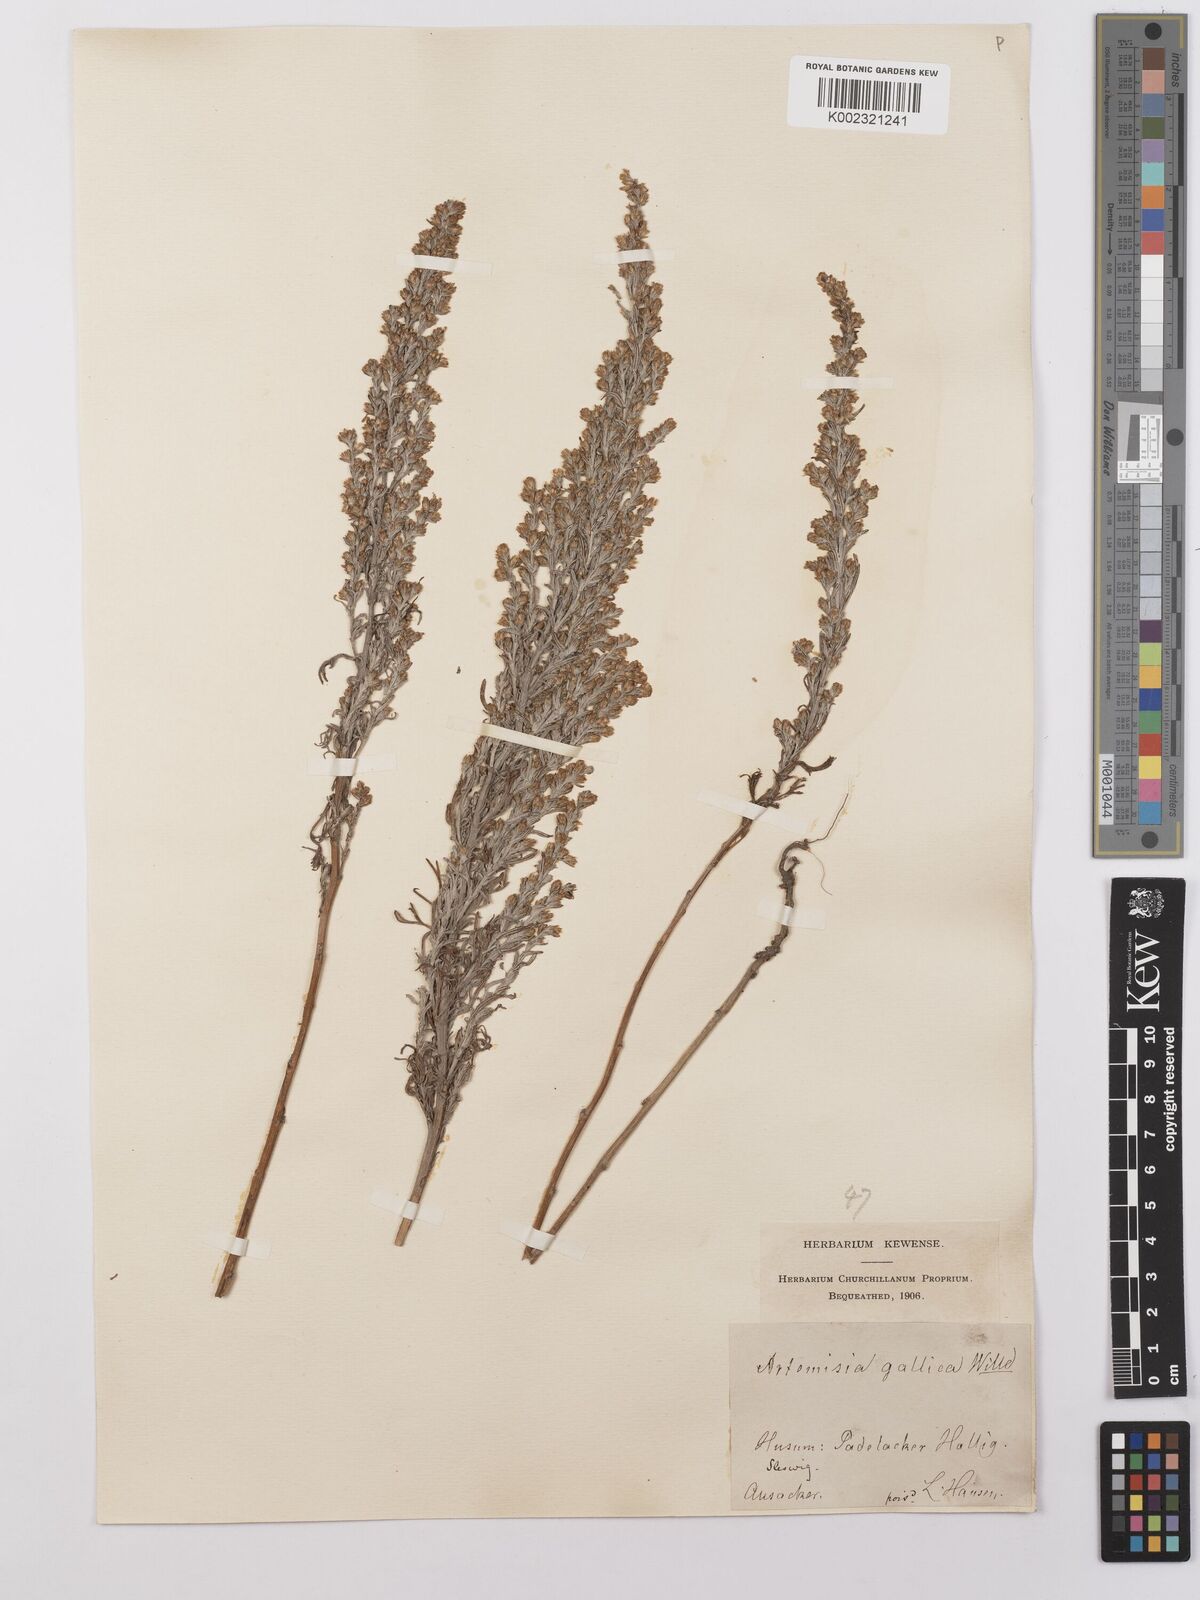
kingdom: Plantae
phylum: Tracheophyta
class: Magnoliopsida
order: Asterales
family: Asteraceae
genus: Artemisia
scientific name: Artemisia maritima
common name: Wormseed
